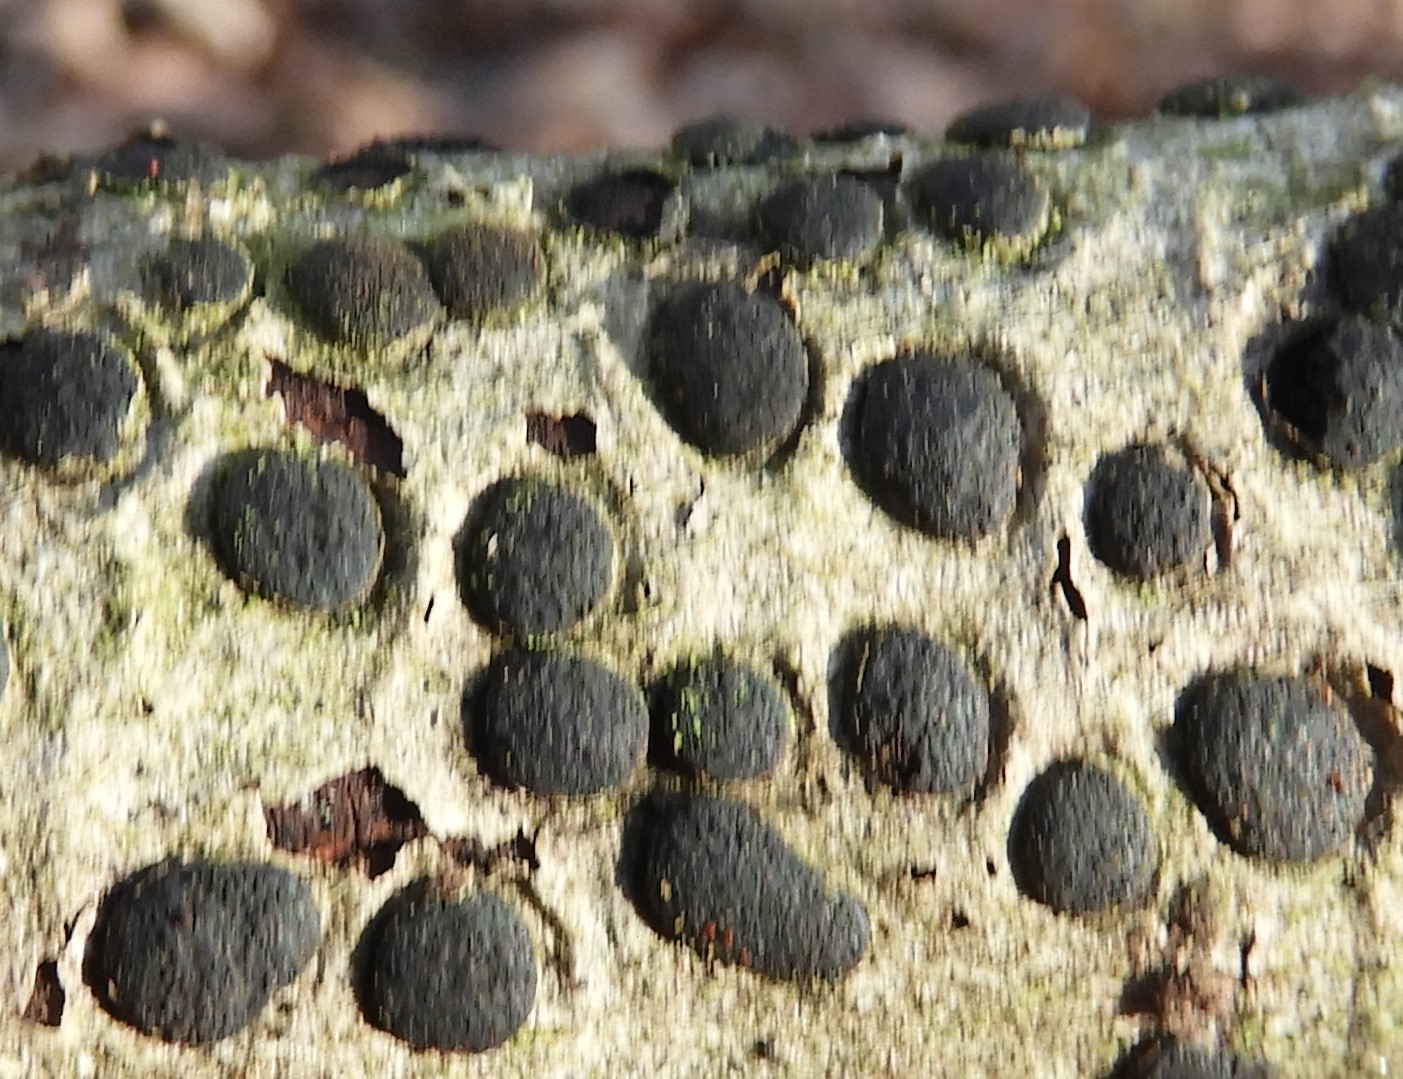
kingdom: Fungi
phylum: Ascomycota
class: Sordariomycetes
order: Xylariales
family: Diatrypaceae
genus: Diatrype
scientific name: Diatrype bullata
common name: pile-kulskorpe
